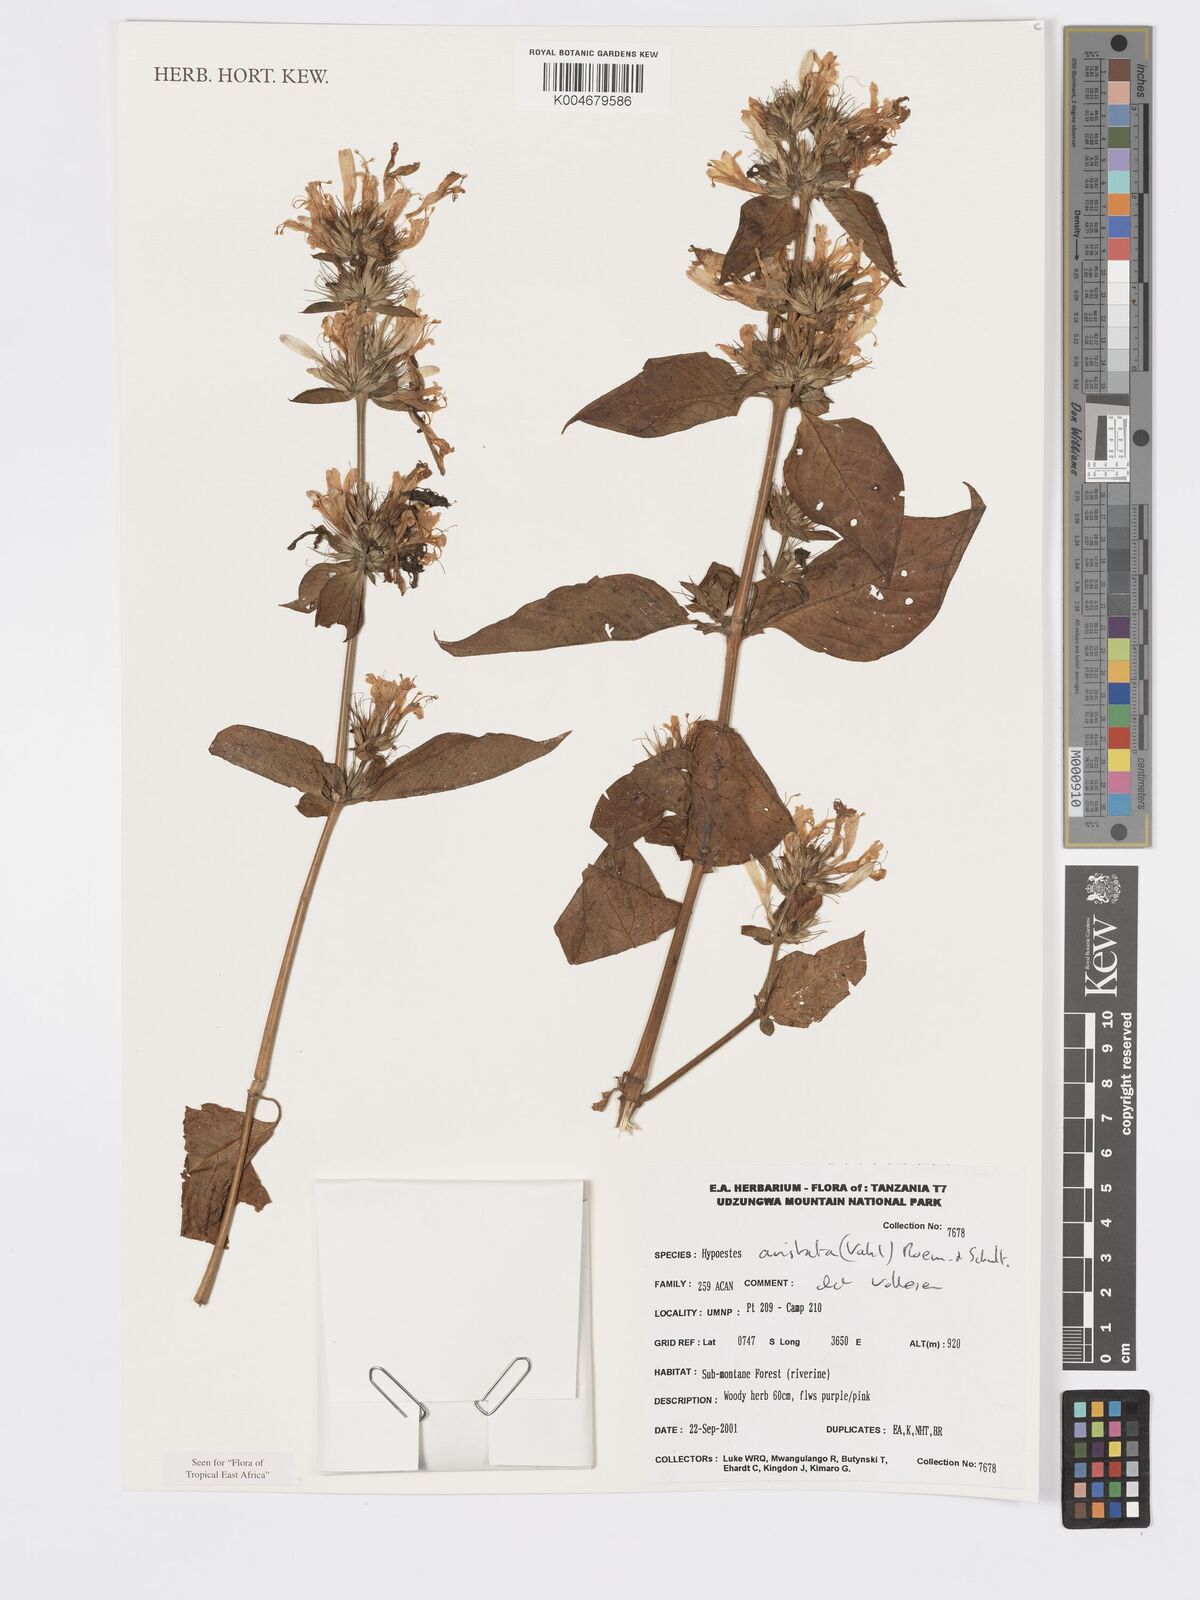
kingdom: Plantae
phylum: Tracheophyta
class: Magnoliopsida
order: Lamiales
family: Acanthaceae
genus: Hypoestes
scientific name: Hypoestes aristata
